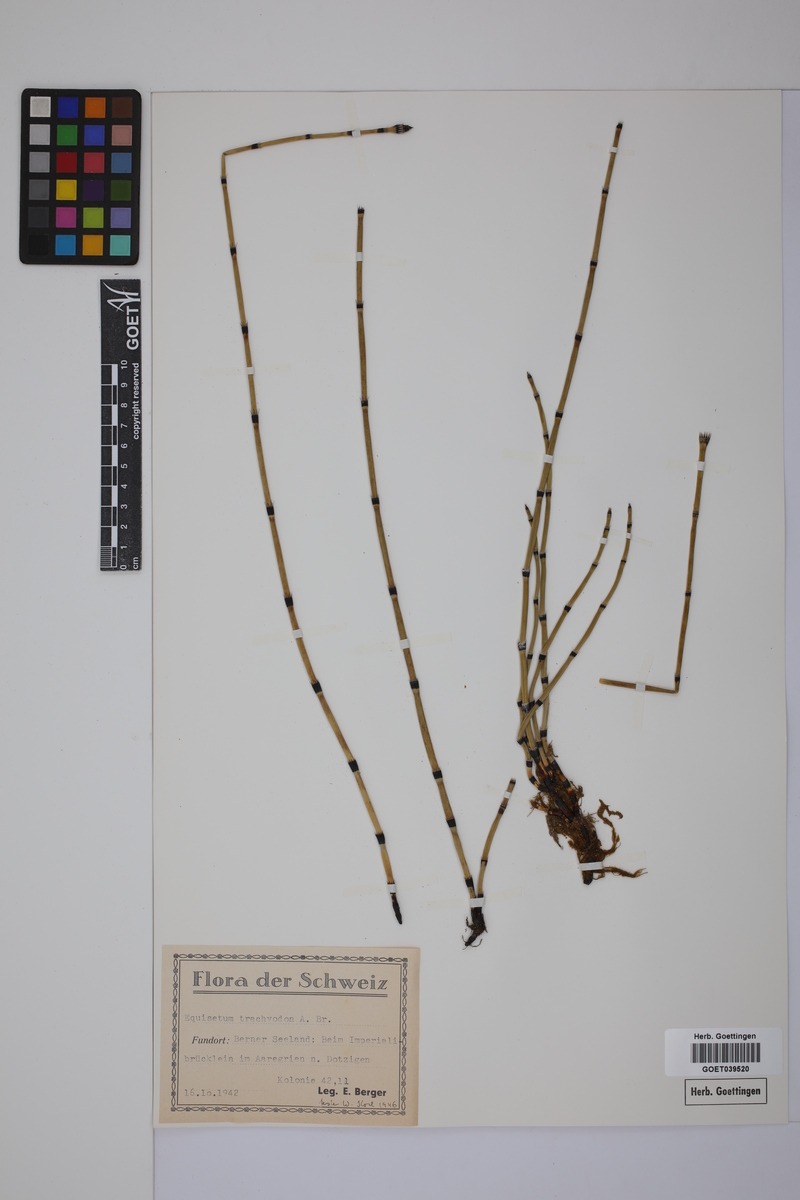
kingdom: Plantae
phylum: Tracheophyta
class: Polypodiopsida
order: Equisetales
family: Equisetaceae
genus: Equisetum
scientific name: Equisetum trachyodon
